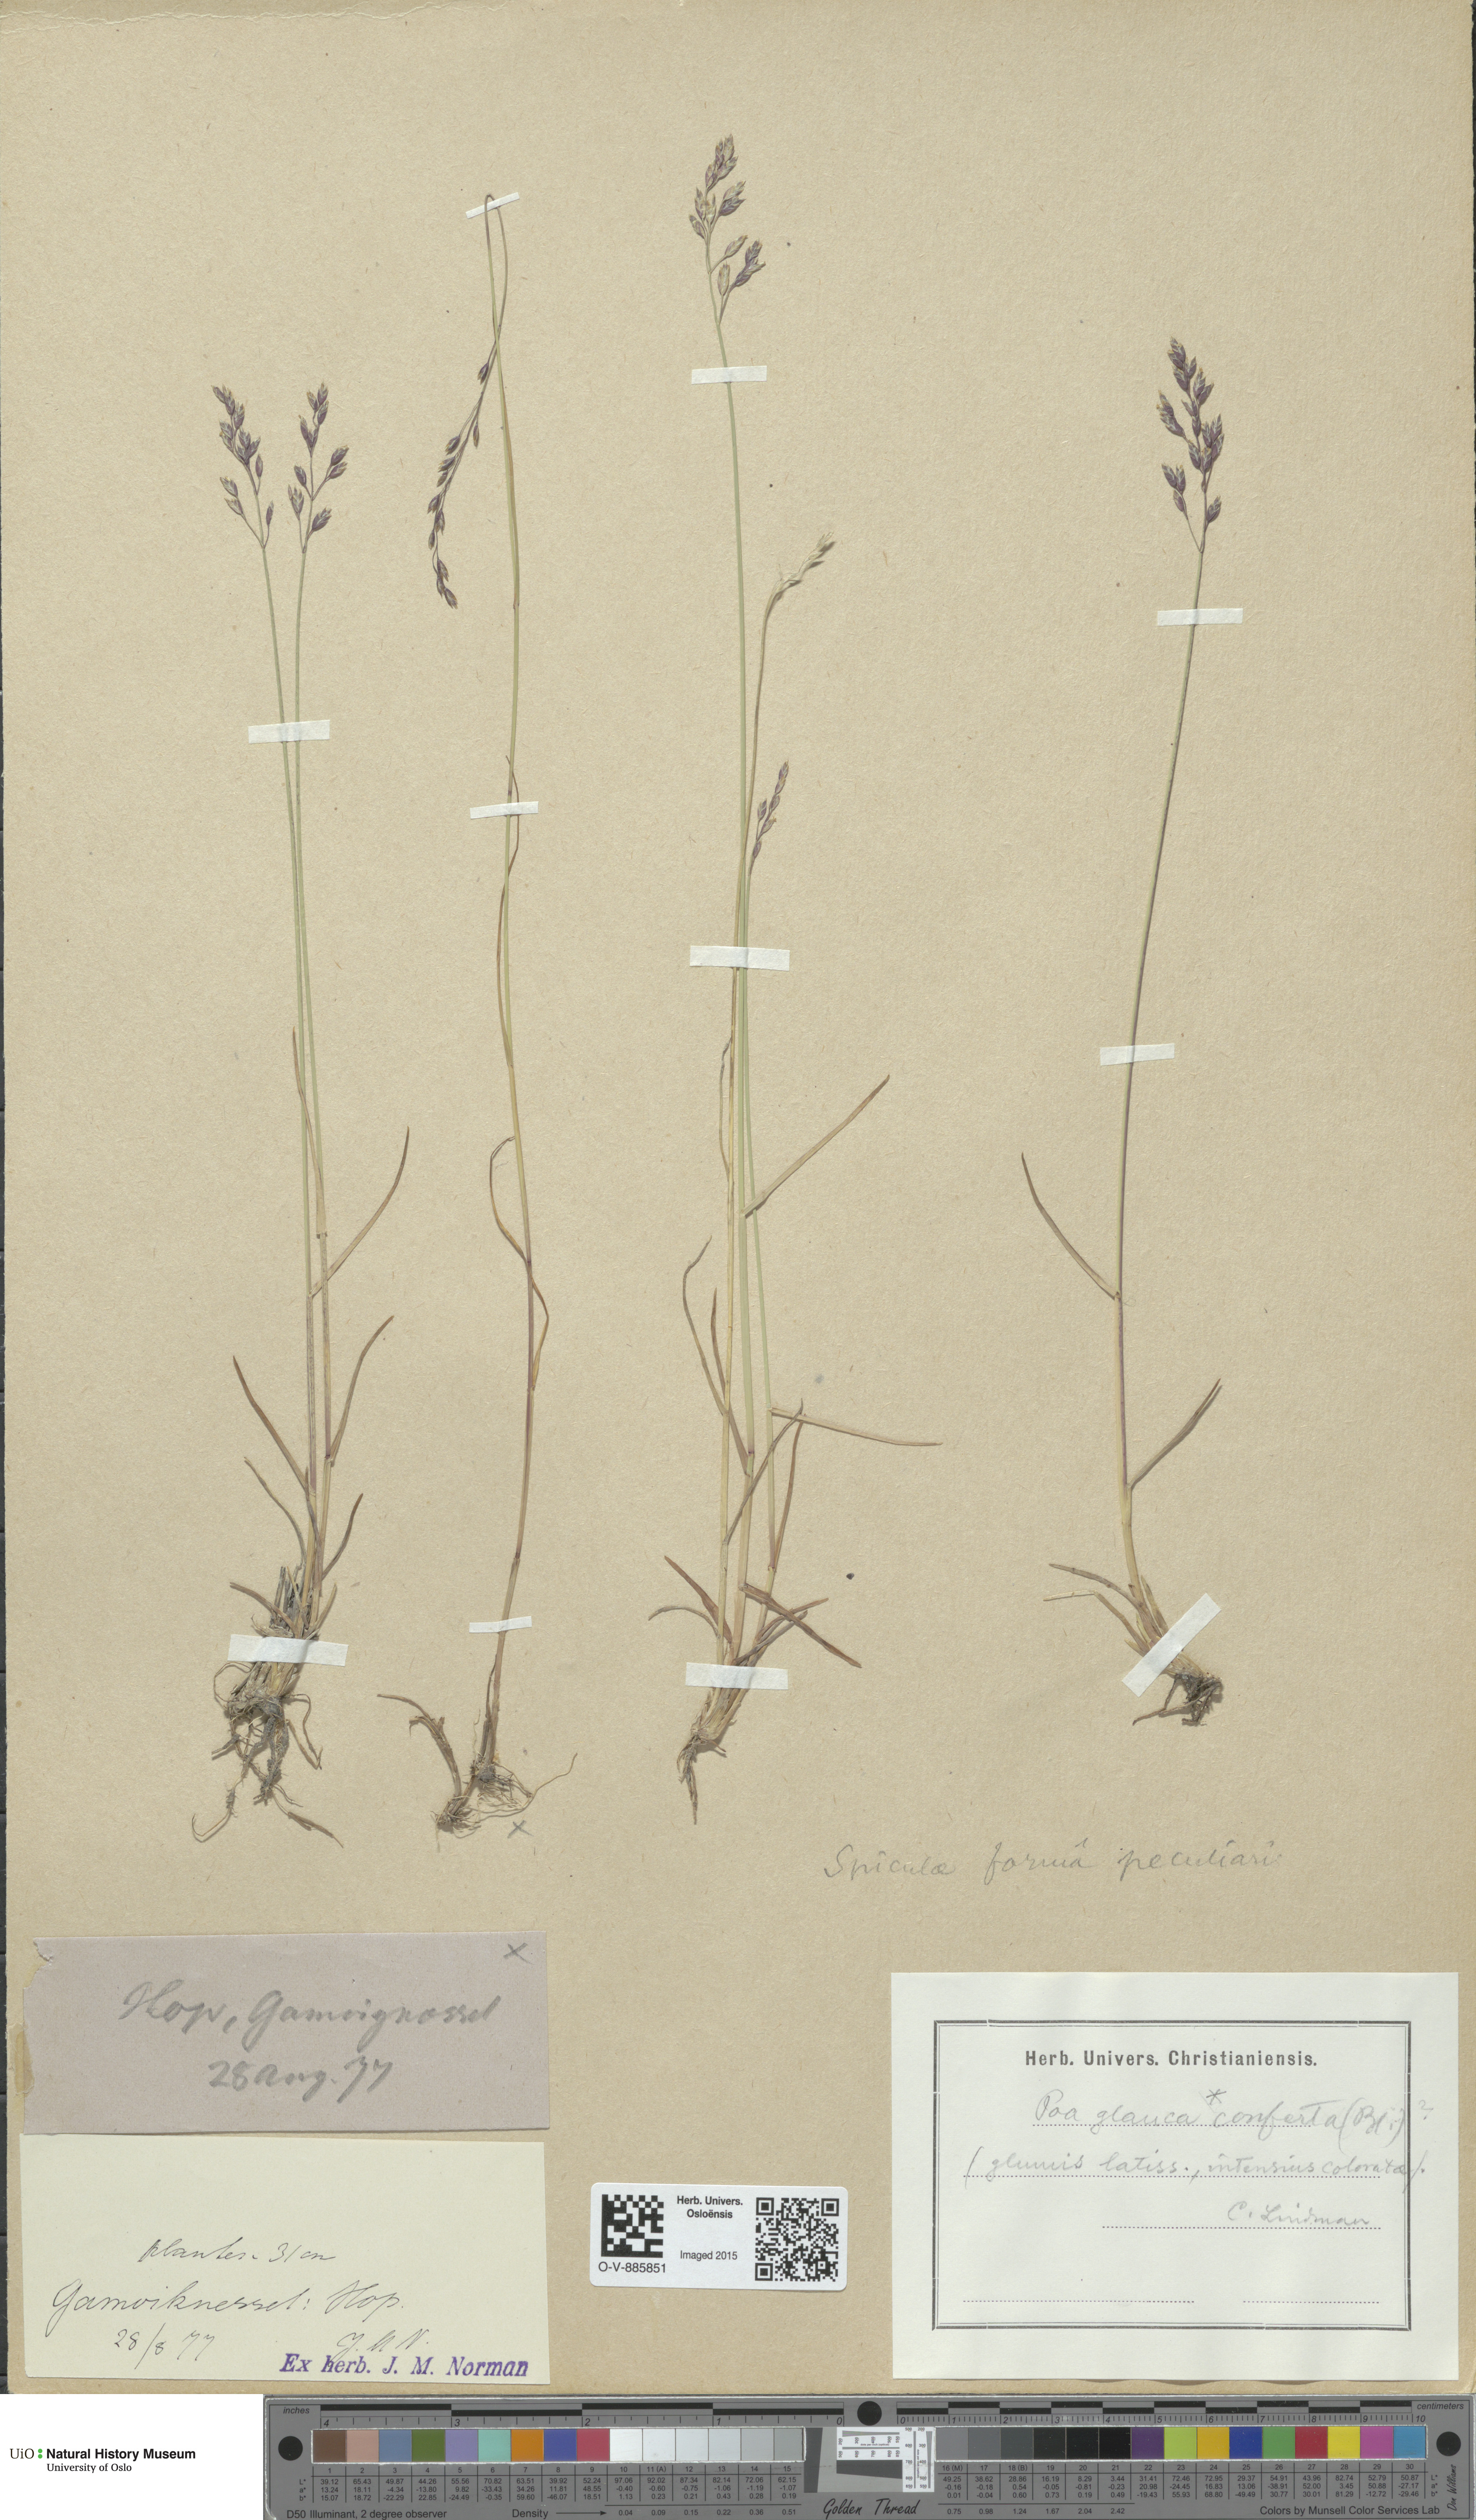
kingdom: Plantae
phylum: Tracheophyta
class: Liliopsida
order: Poales
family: Poaceae
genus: Poa
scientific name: Poa glauca
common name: Glaucous bluegrass
